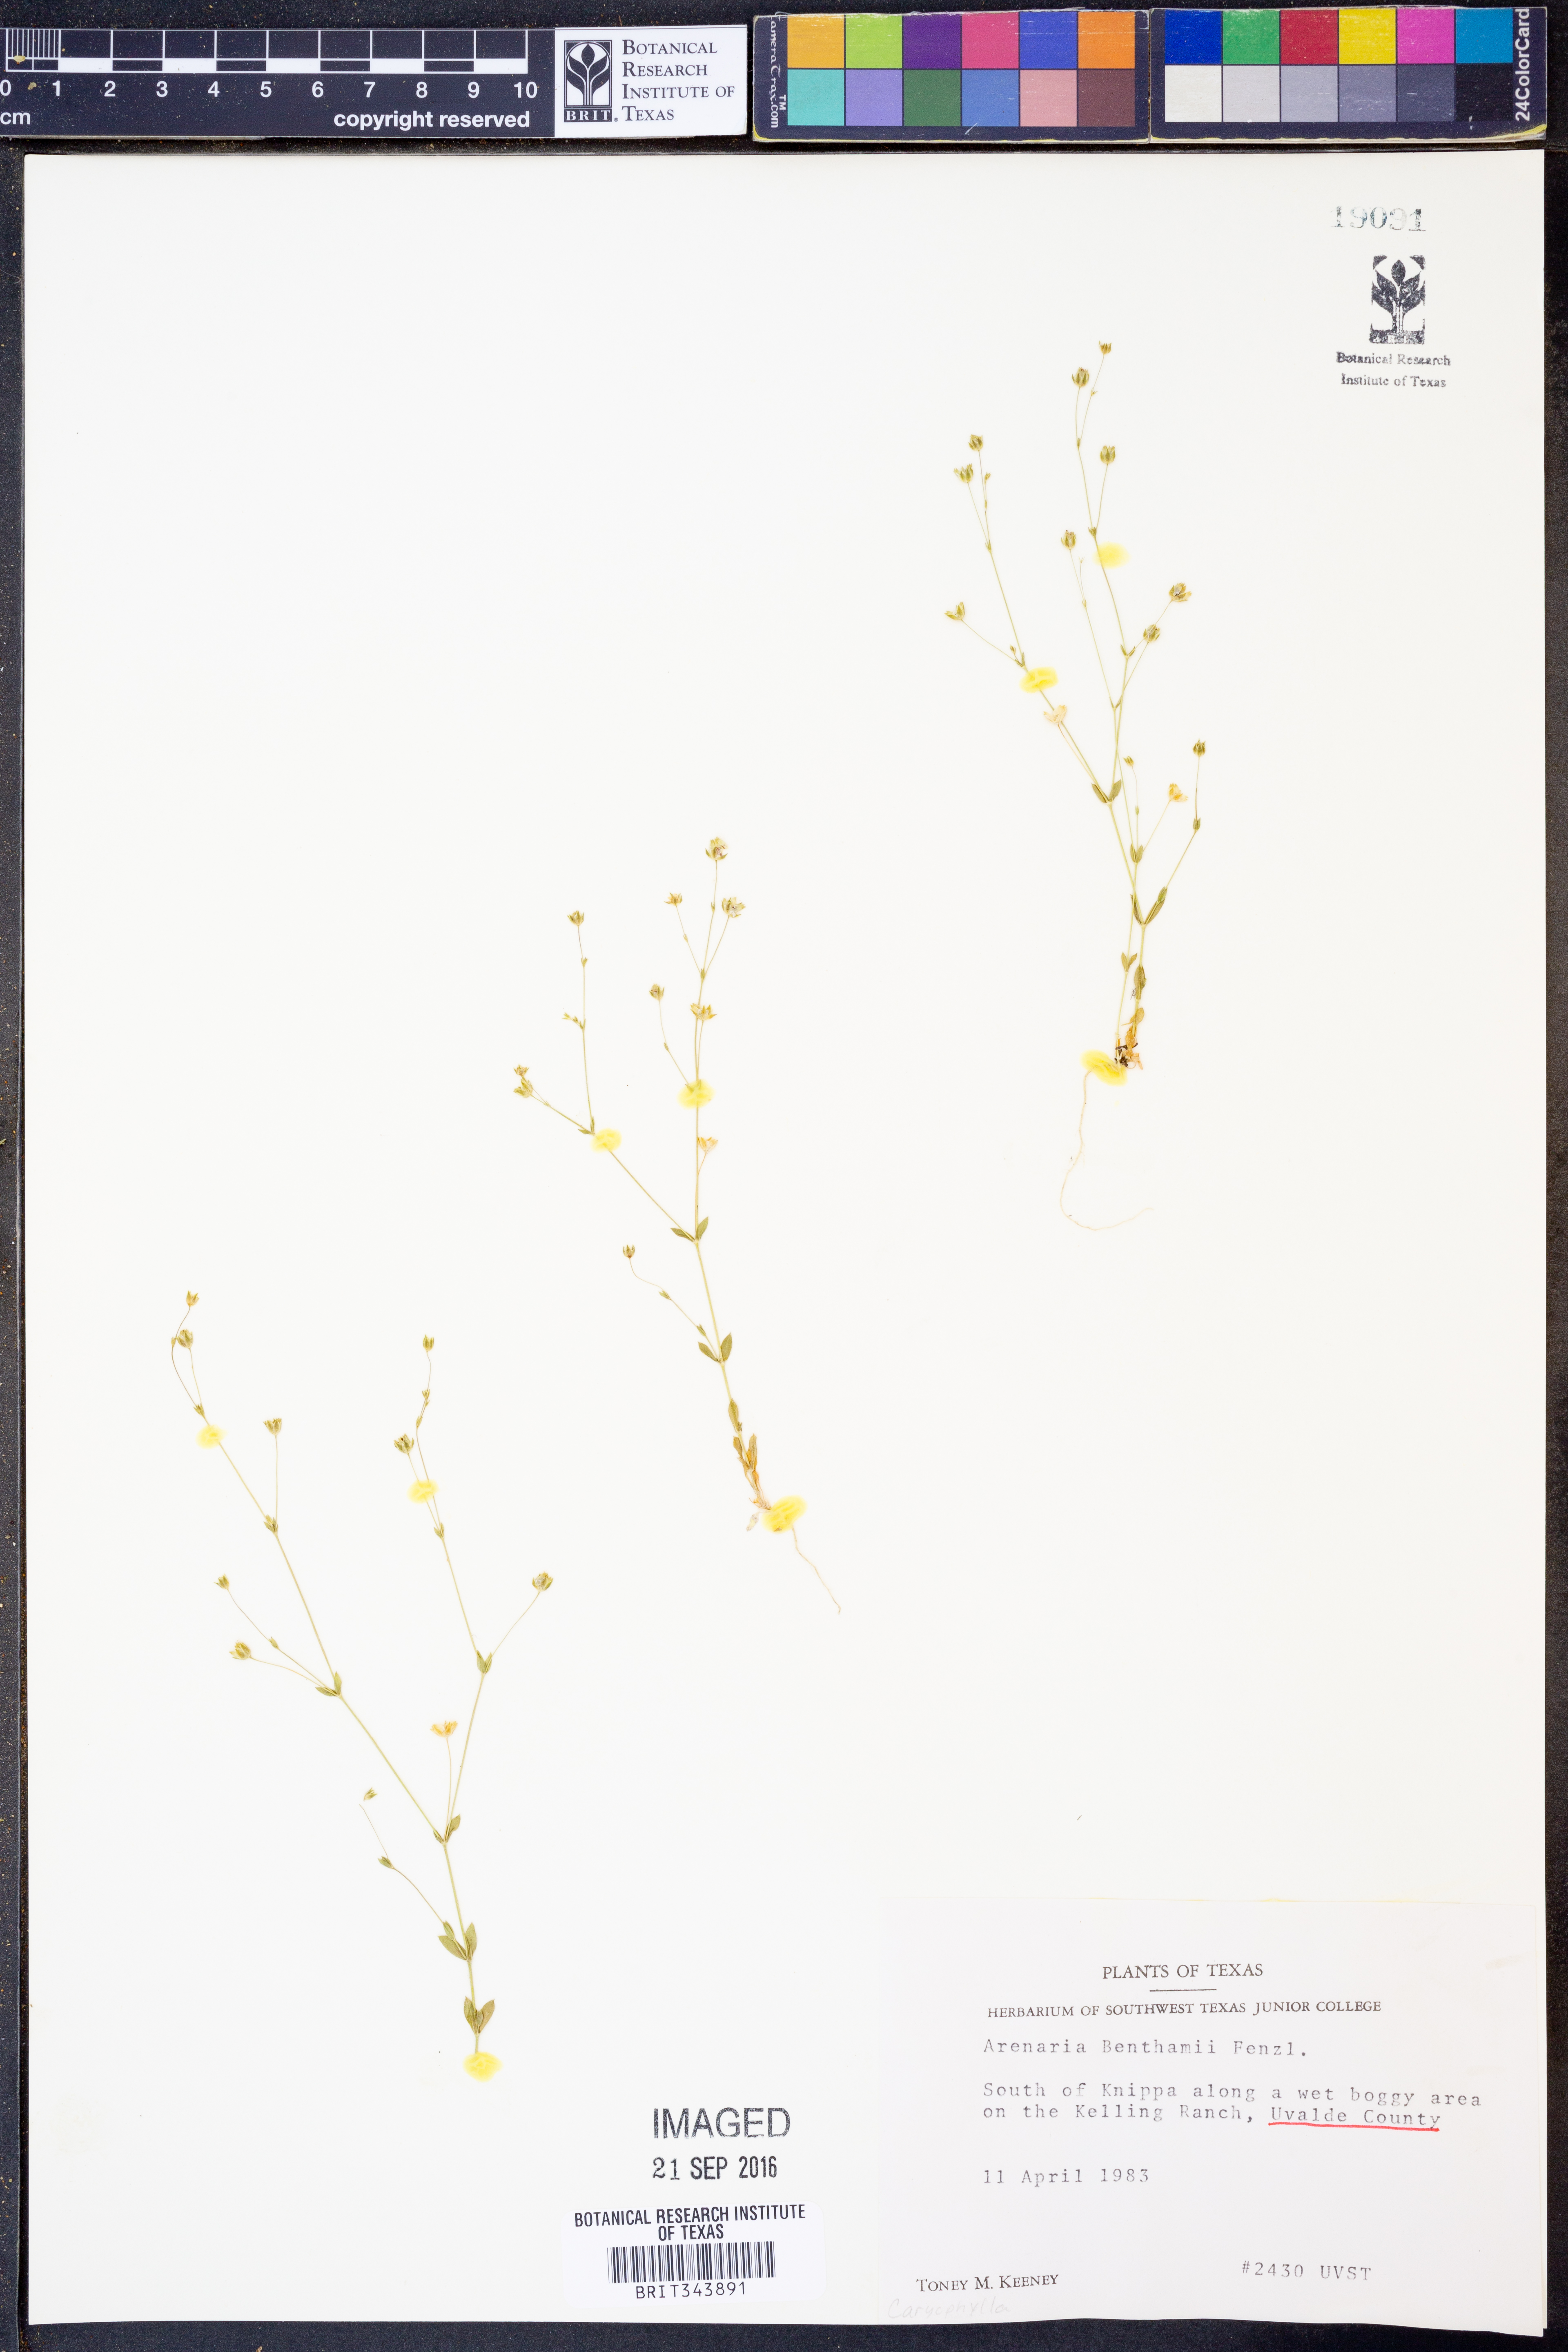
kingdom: Plantae
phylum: Tracheophyta
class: Magnoliopsida
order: Caryophyllales
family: Caryophyllaceae
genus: Arenaria
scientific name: Arenaria benthamii
